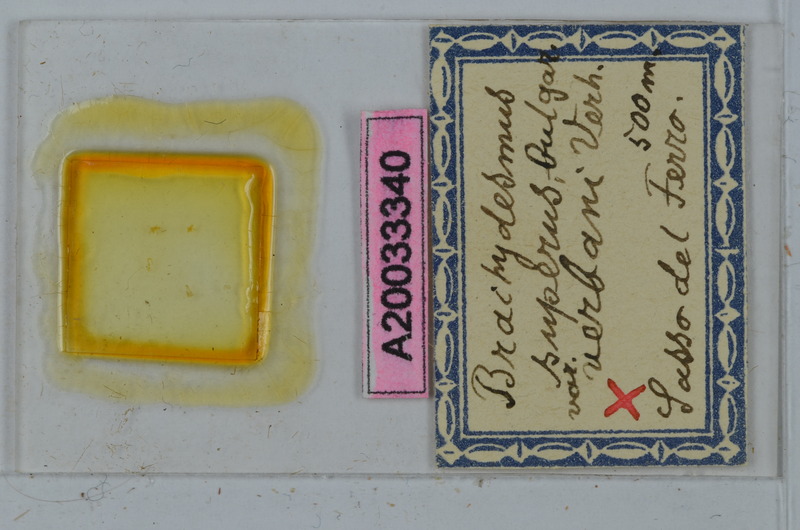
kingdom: Animalia
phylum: Arthropoda
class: Diplopoda
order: Polydesmida
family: Polydesmidae
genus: Brachydesmus
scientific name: Brachydesmus superus
